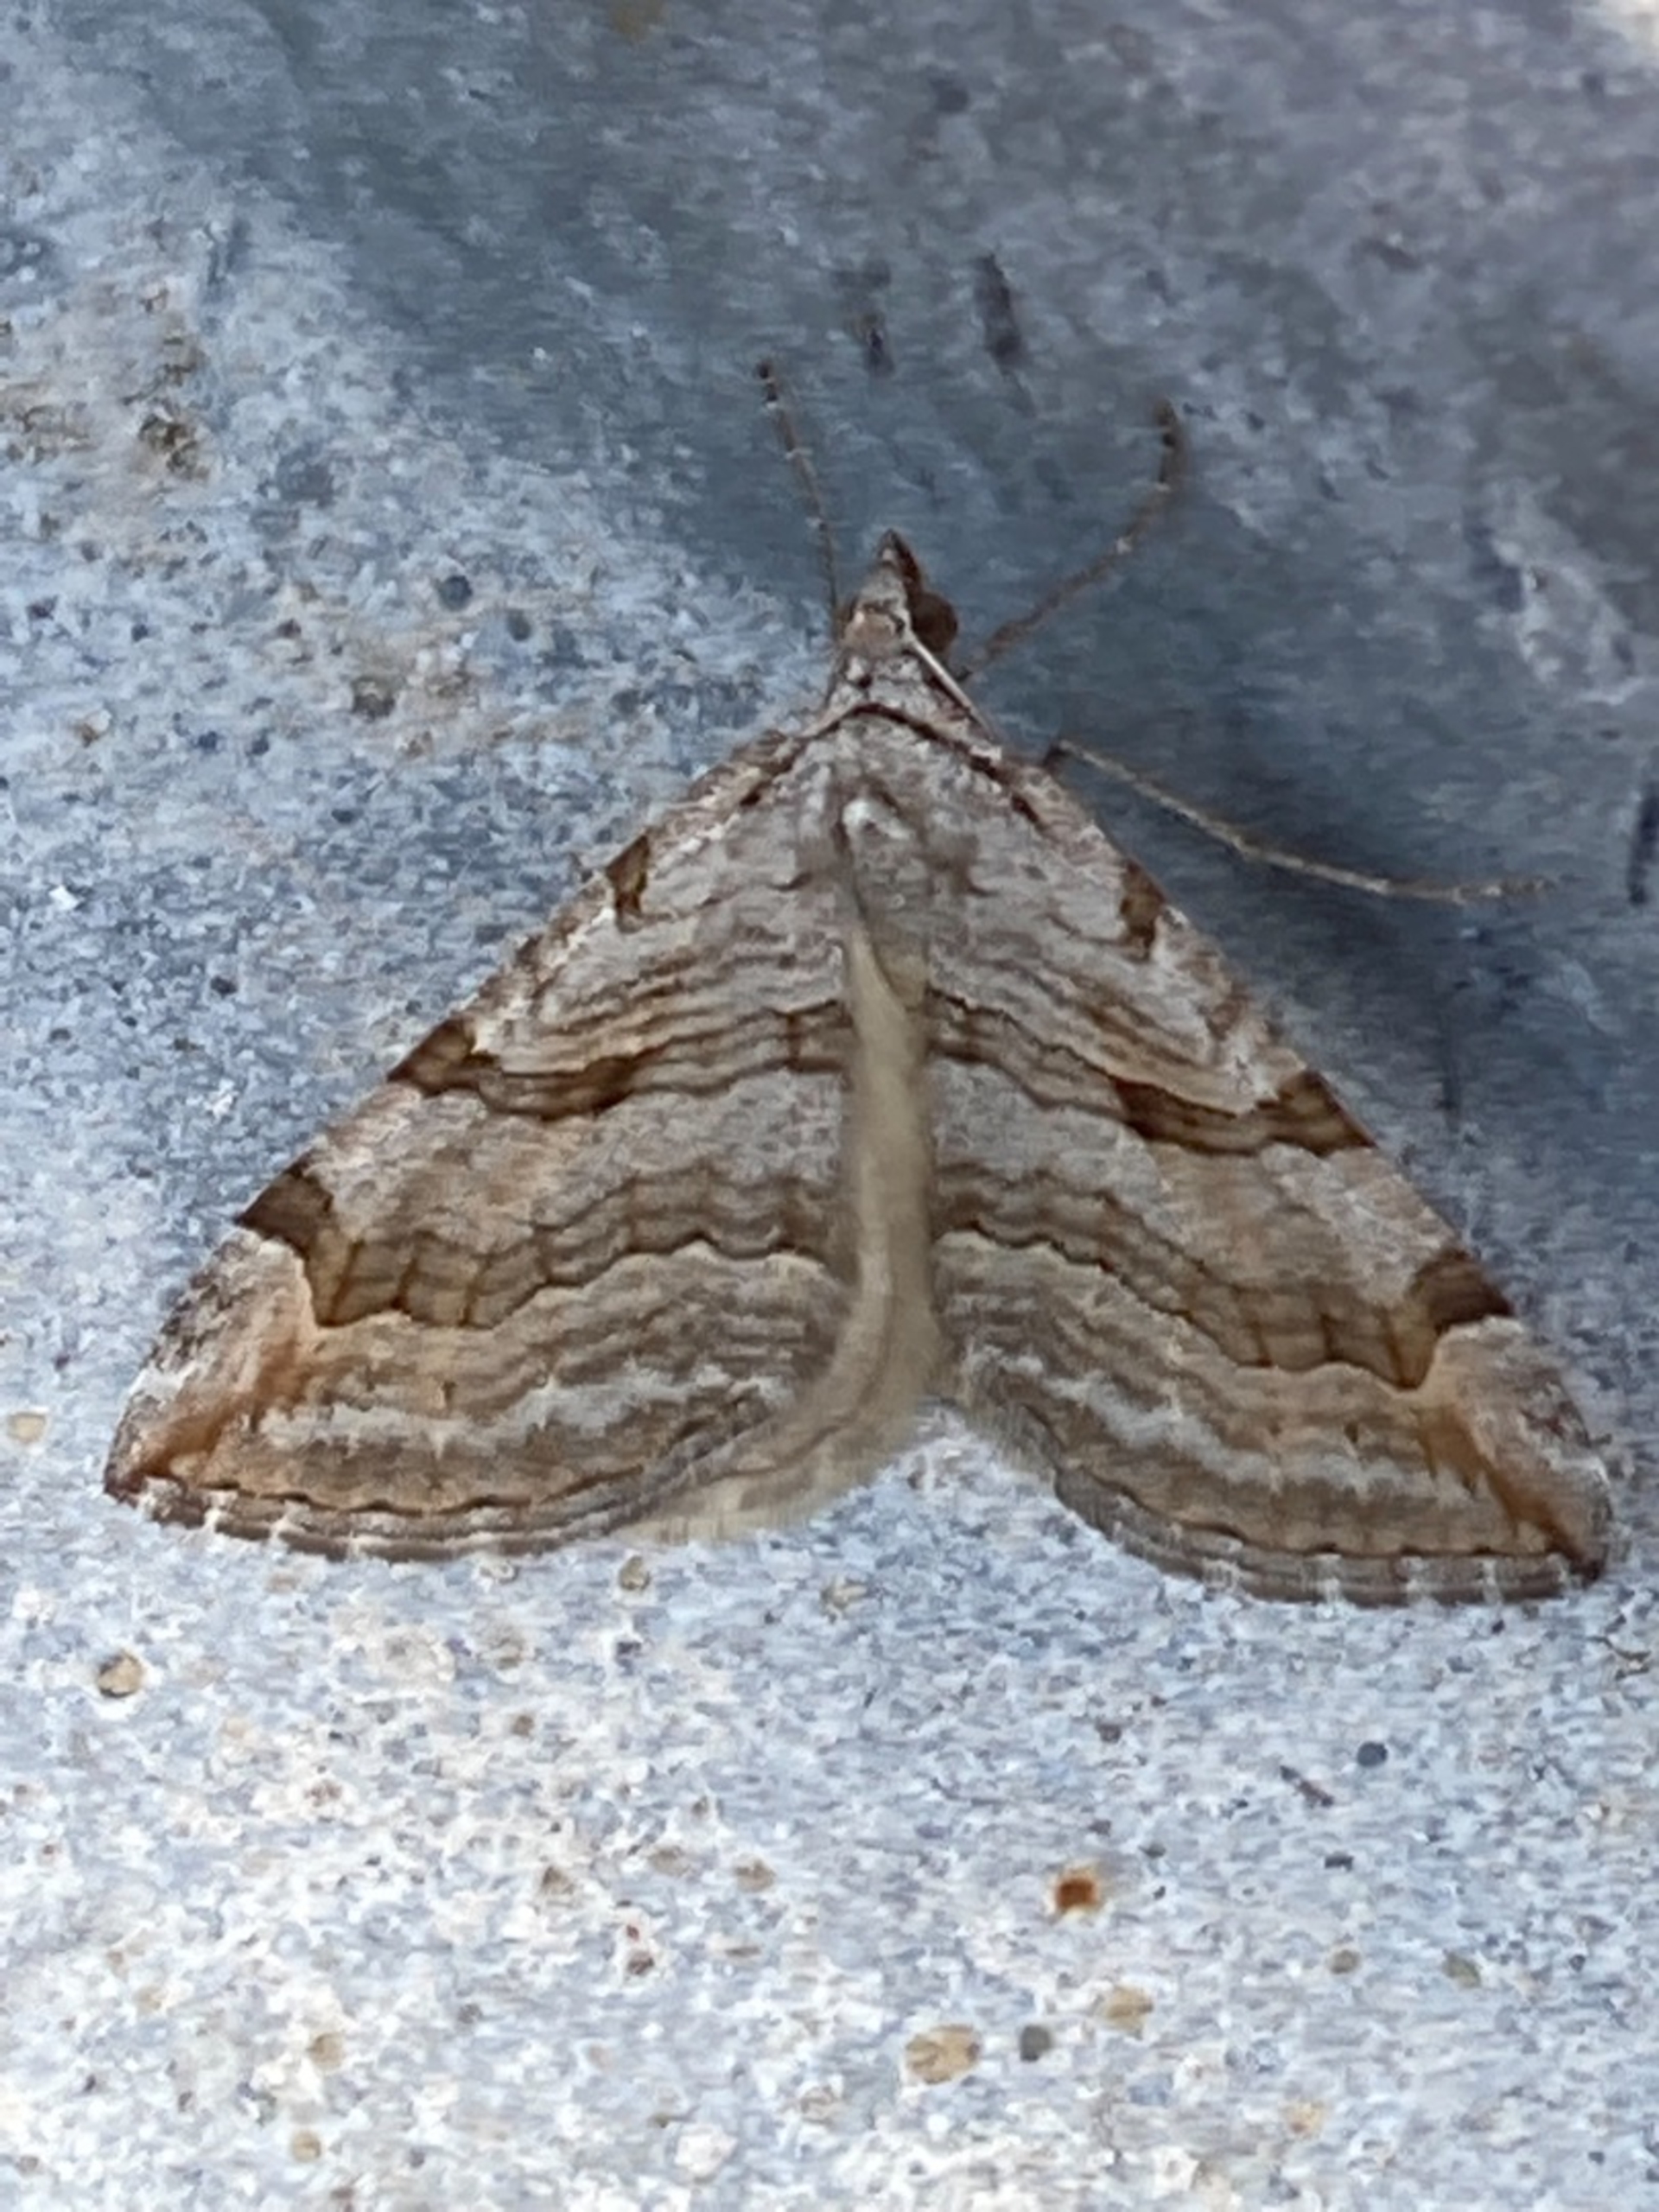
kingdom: Animalia
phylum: Arthropoda
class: Insecta
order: Lepidoptera
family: Geometridae
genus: Aplocera
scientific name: Aplocera efformata
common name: Perikonmåler
